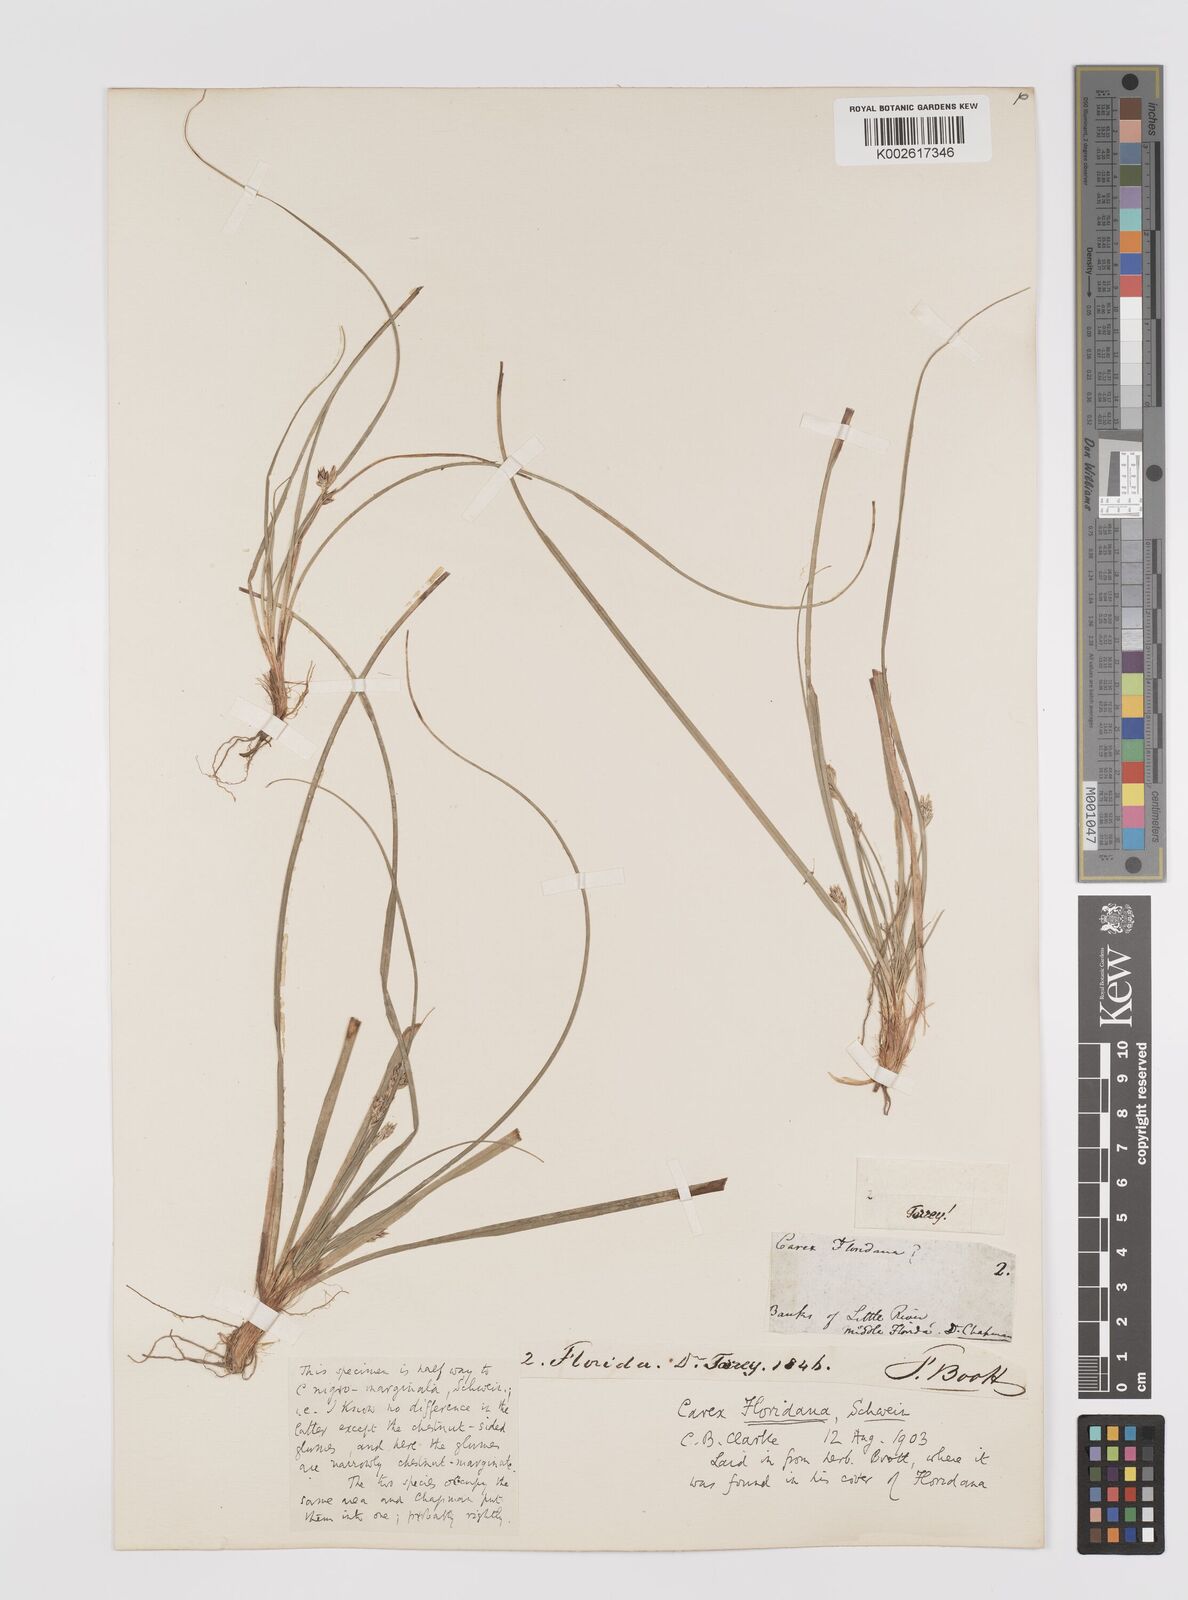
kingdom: Plantae
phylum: Tracheophyta
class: Liliopsida
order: Poales
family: Cyperaceae
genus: Carex
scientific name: Carex floridana
